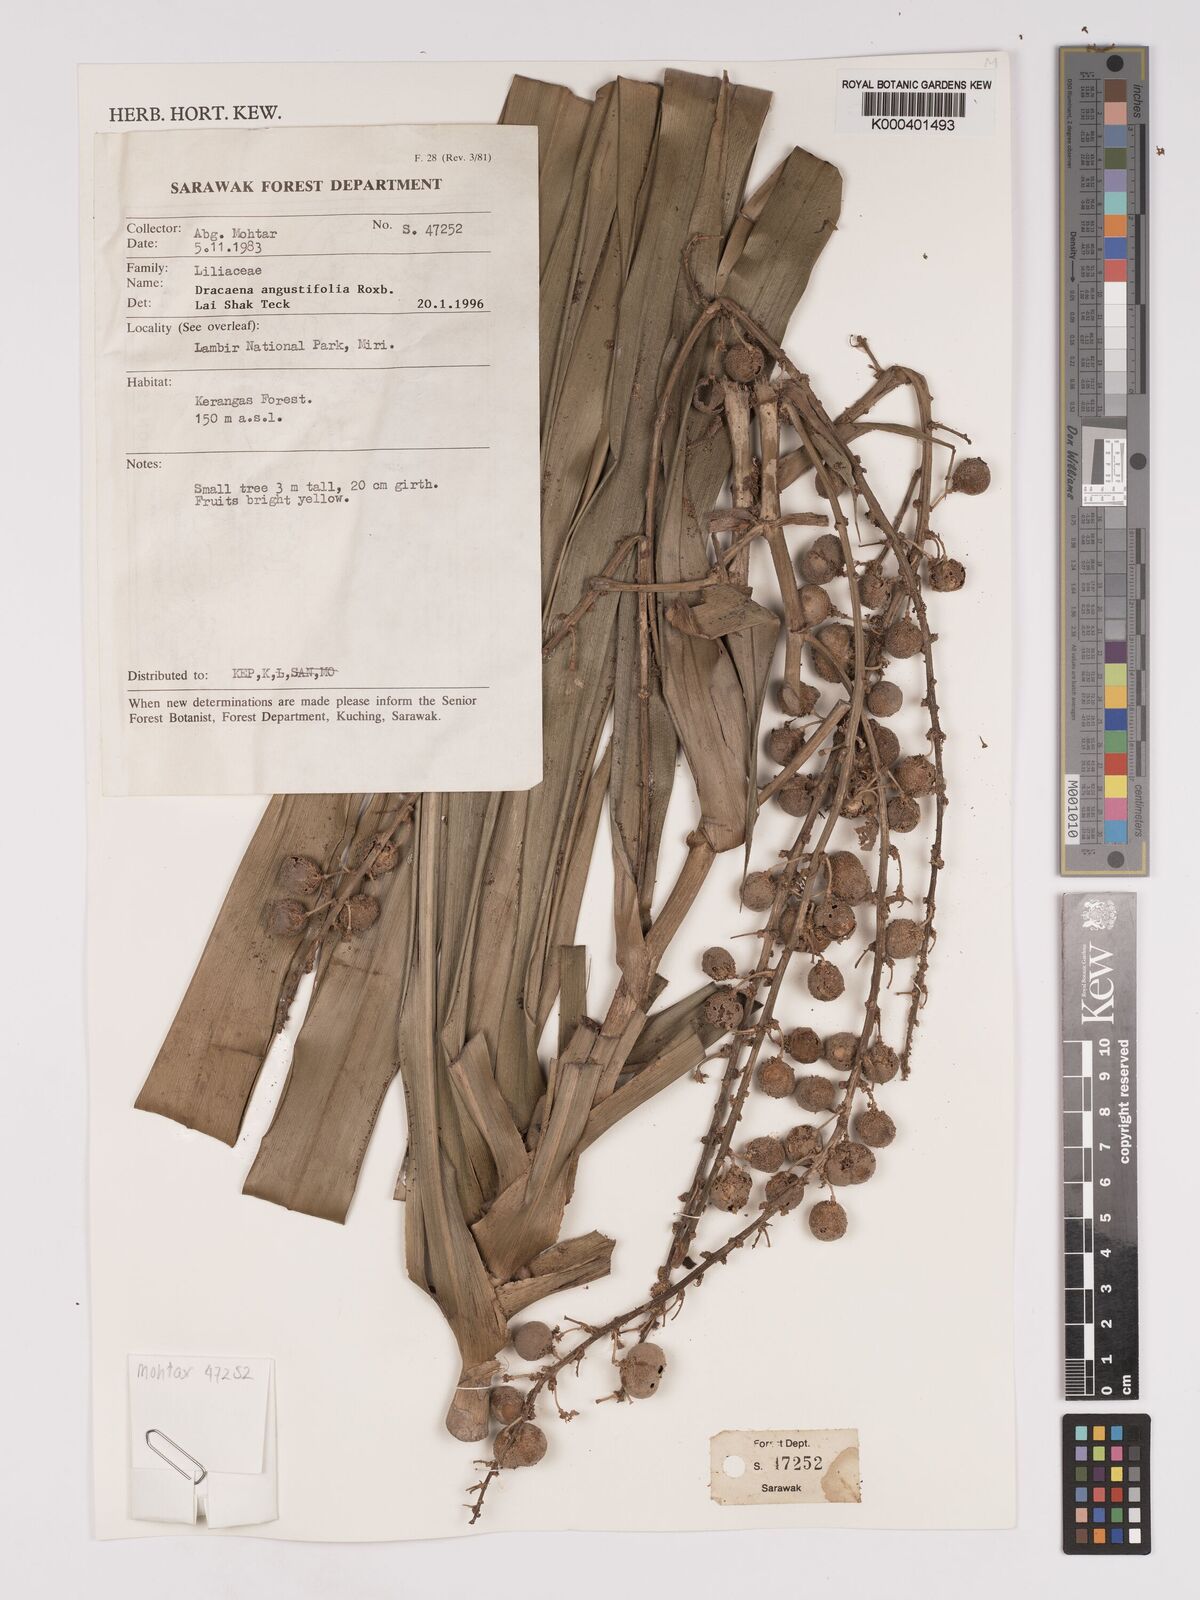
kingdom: Plantae
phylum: Tracheophyta
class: Liliopsida
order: Asparagales
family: Asparagaceae
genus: Dracaena
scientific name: Dracaena angustifolia
